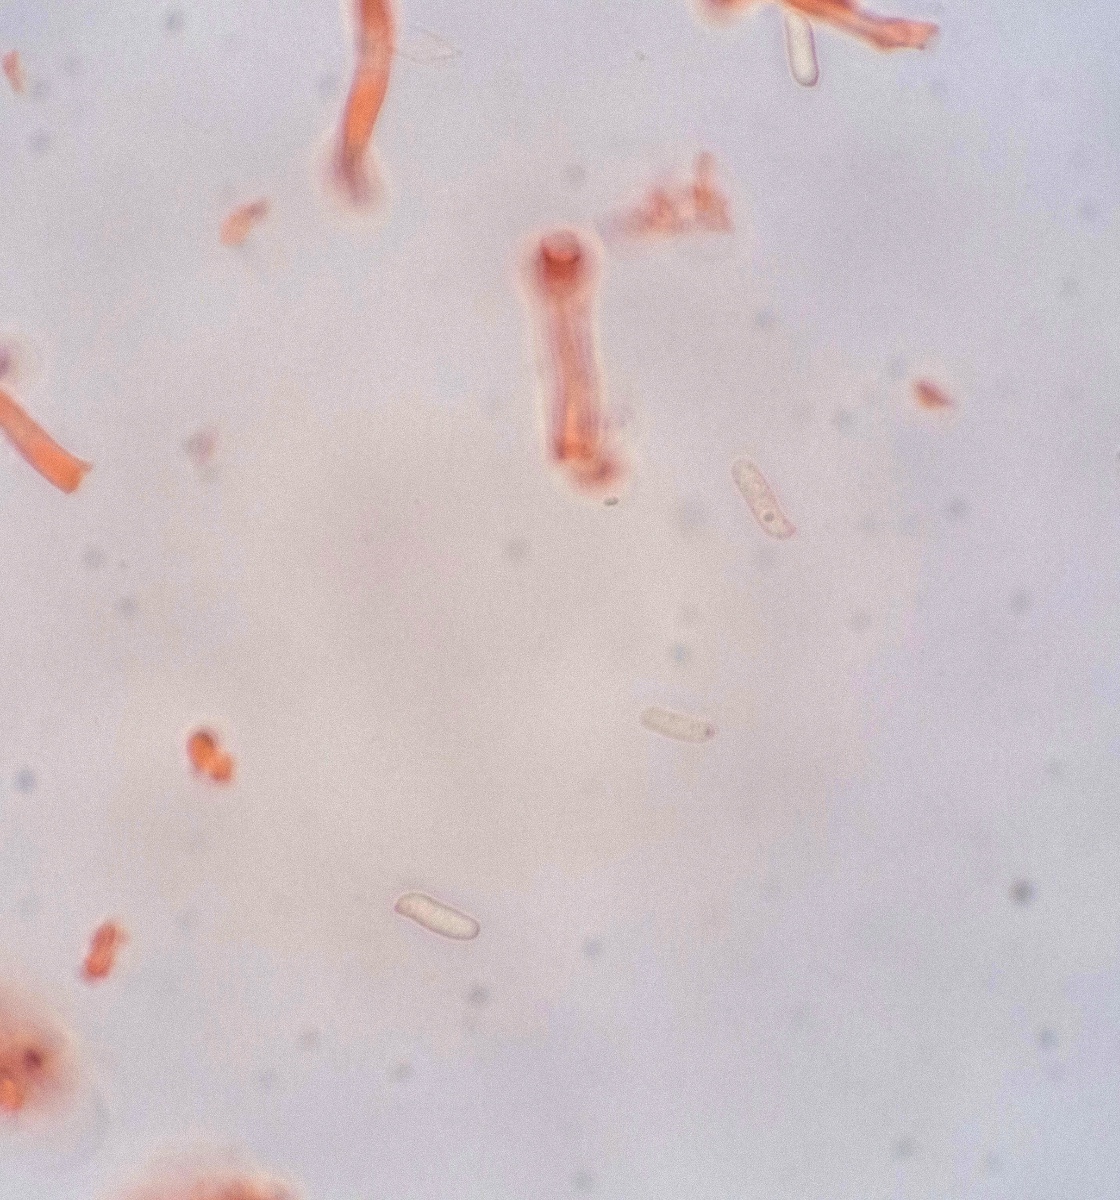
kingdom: Fungi
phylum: Basidiomycota
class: Agaricomycetes
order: Polyporales
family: Fomitopsidaceae
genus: Fomitopsis
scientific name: Fomitopsis
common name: pile-skiveporesvamp
